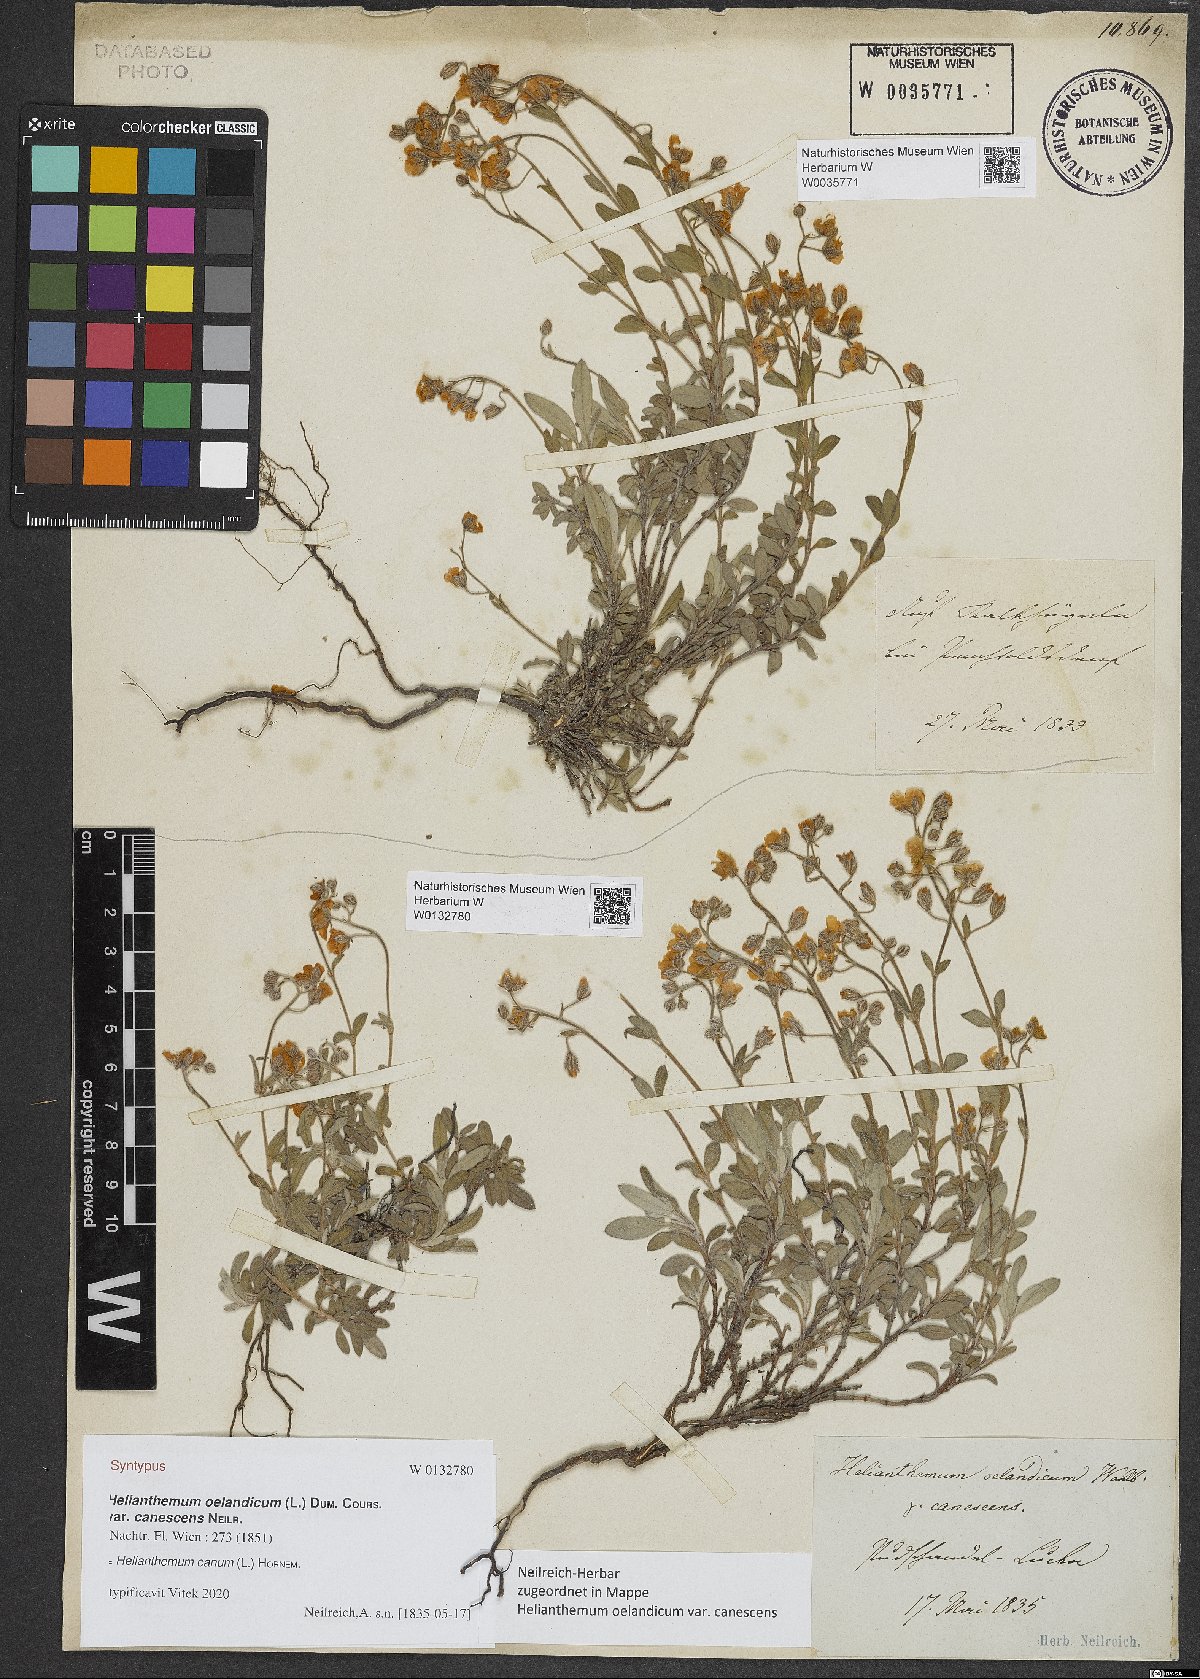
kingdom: Plantae
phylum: Tracheophyta
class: Magnoliopsida
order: Malvales
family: Cistaceae
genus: Helianthemum
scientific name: Helianthemum oelandicum
